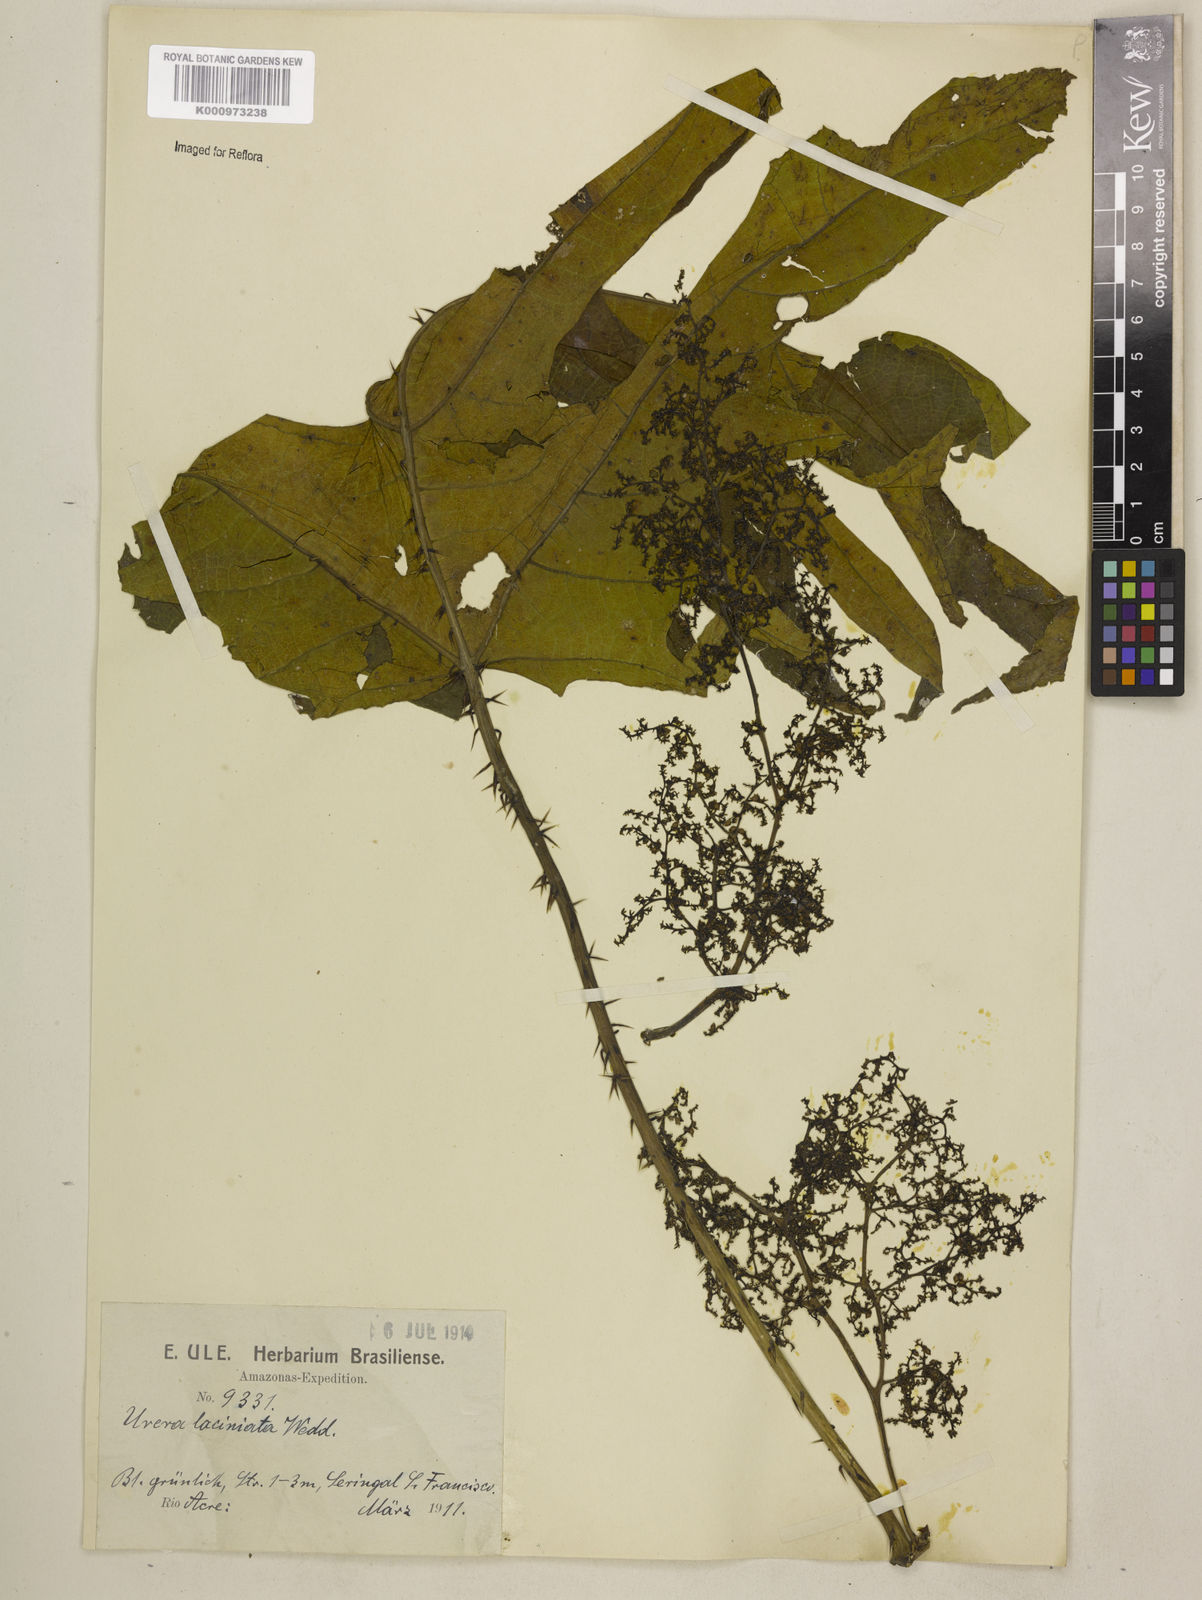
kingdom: Plantae
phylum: Tracheophyta
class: Magnoliopsida
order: Rosales
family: Urticaceae
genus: Urera
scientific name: Urera laciniata
